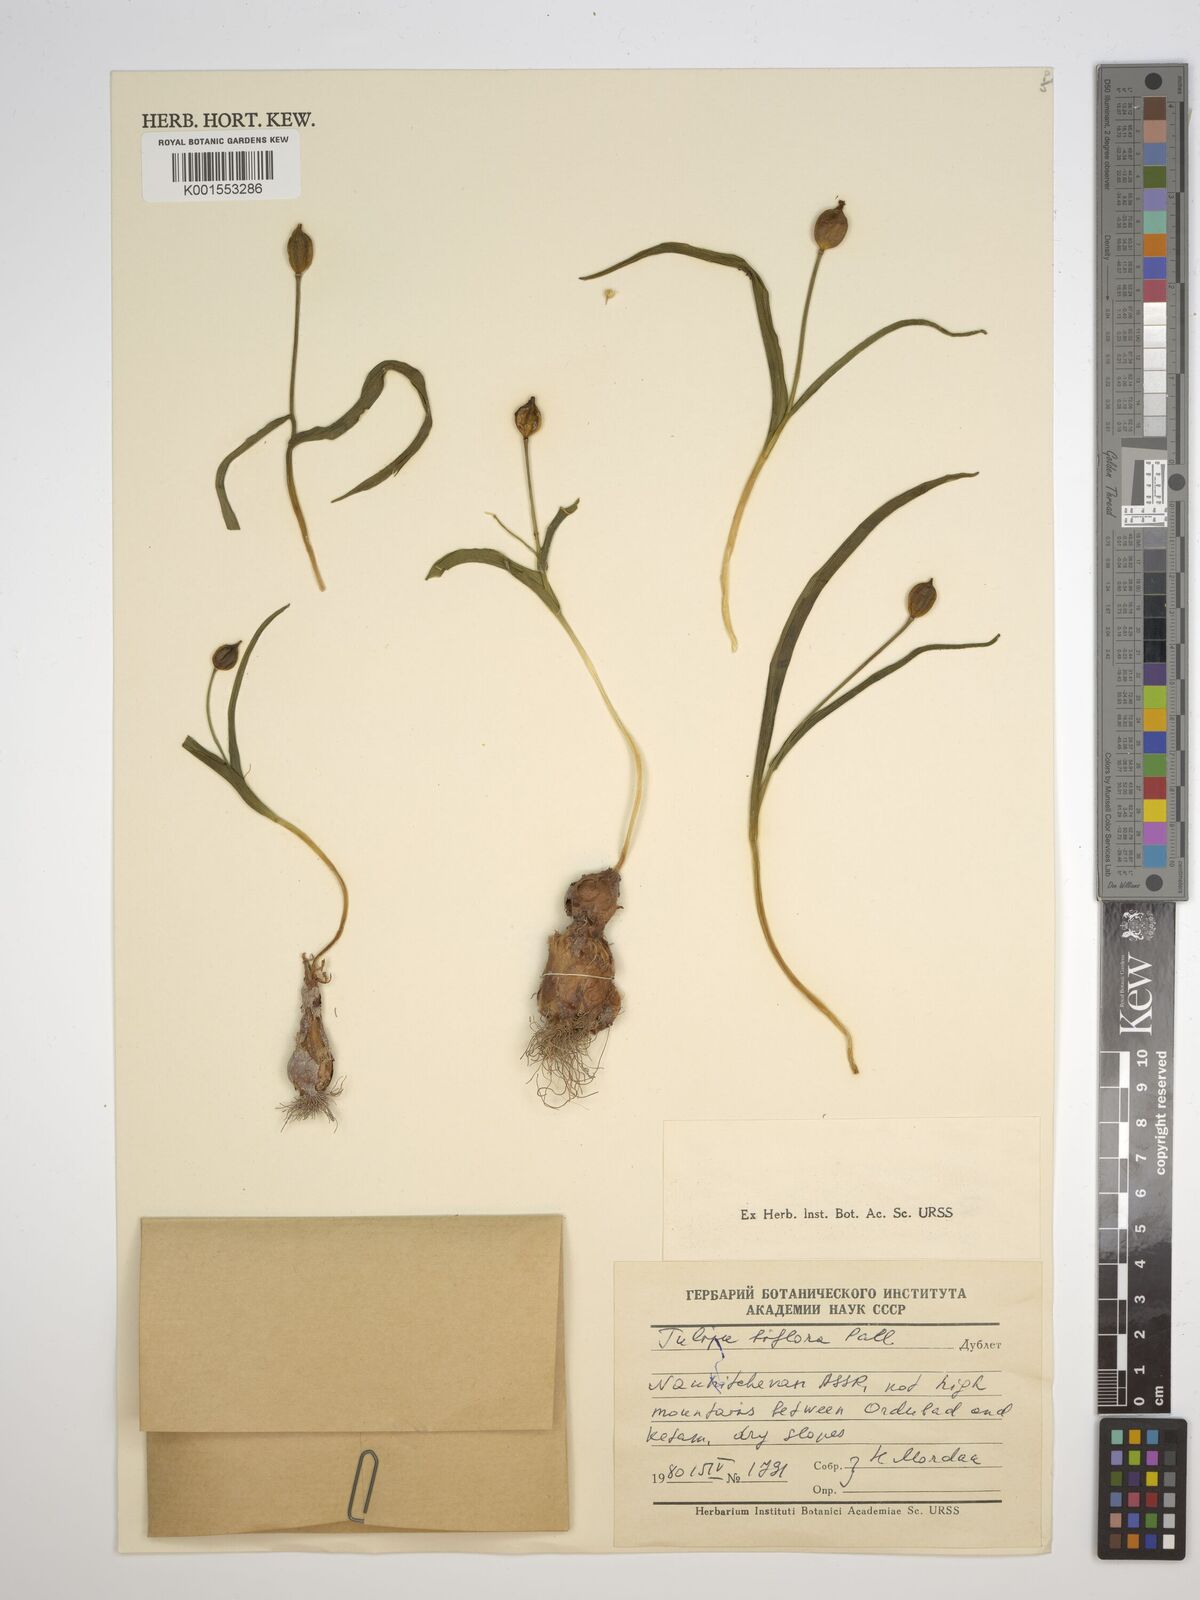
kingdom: Plantae
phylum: Tracheophyta
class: Liliopsida
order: Liliales
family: Liliaceae
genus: Tulipa
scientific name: Tulipa biflora
